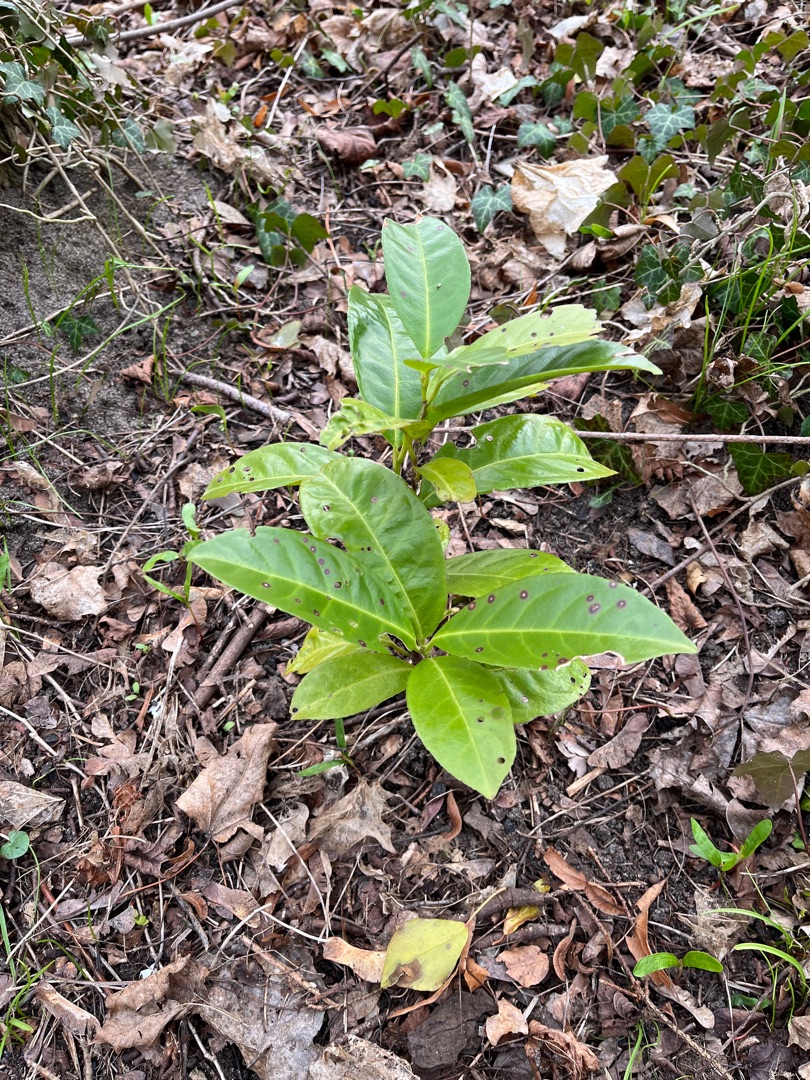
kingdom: Plantae
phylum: Tracheophyta
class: Magnoliopsida
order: Rosales
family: Rosaceae
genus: Prunus
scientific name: Prunus laurocerasus
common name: Laurbærkirsebær
